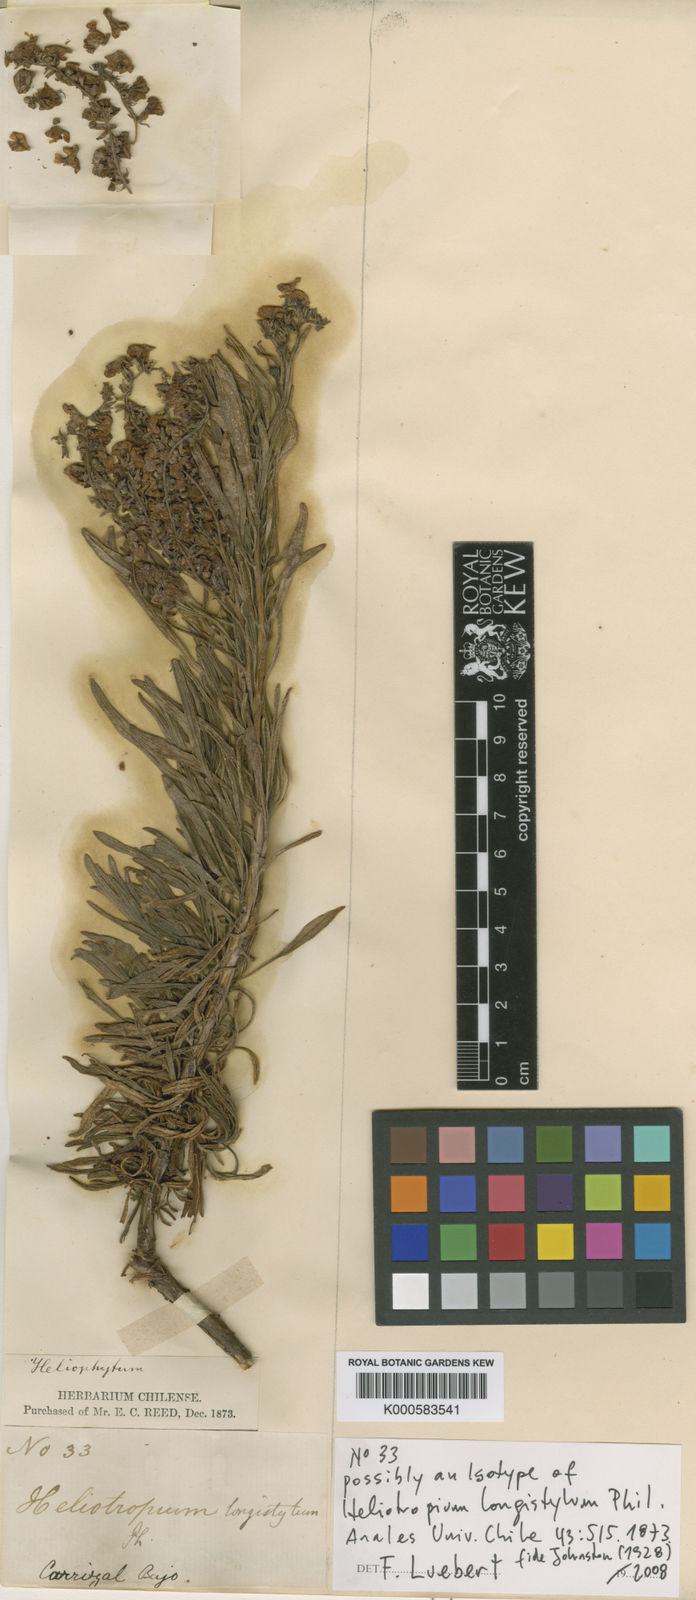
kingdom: Plantae
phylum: Tracheophyta
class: Magnoliopsida
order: Boraginales
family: Heliotropiaceae
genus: Heliotropium
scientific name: Heliotropium longistylum
